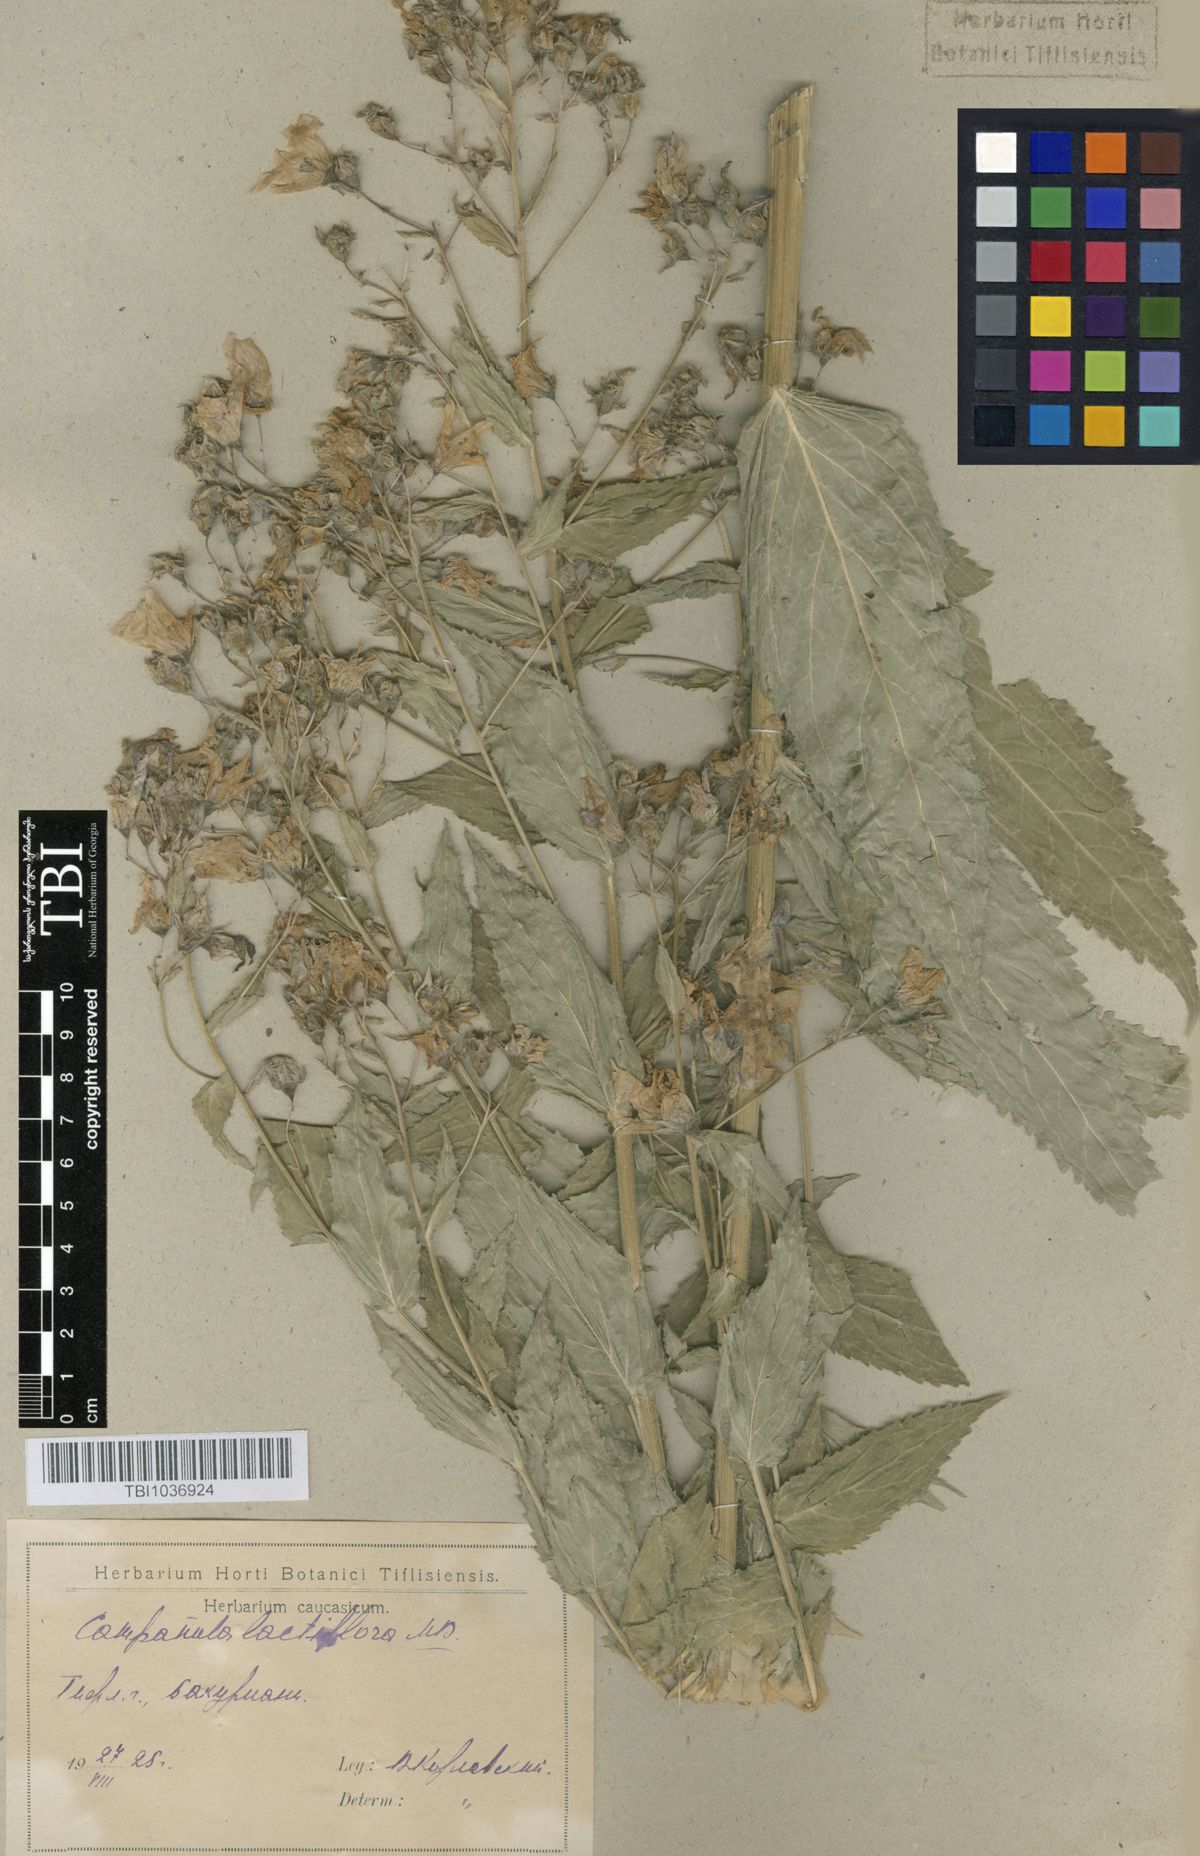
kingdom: Plantae
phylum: Tracheophyta
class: Magnoliopsida
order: Asterales
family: Campanulaceae
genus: Campanula
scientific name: Campanula lactiflora
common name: Milky bellflower
